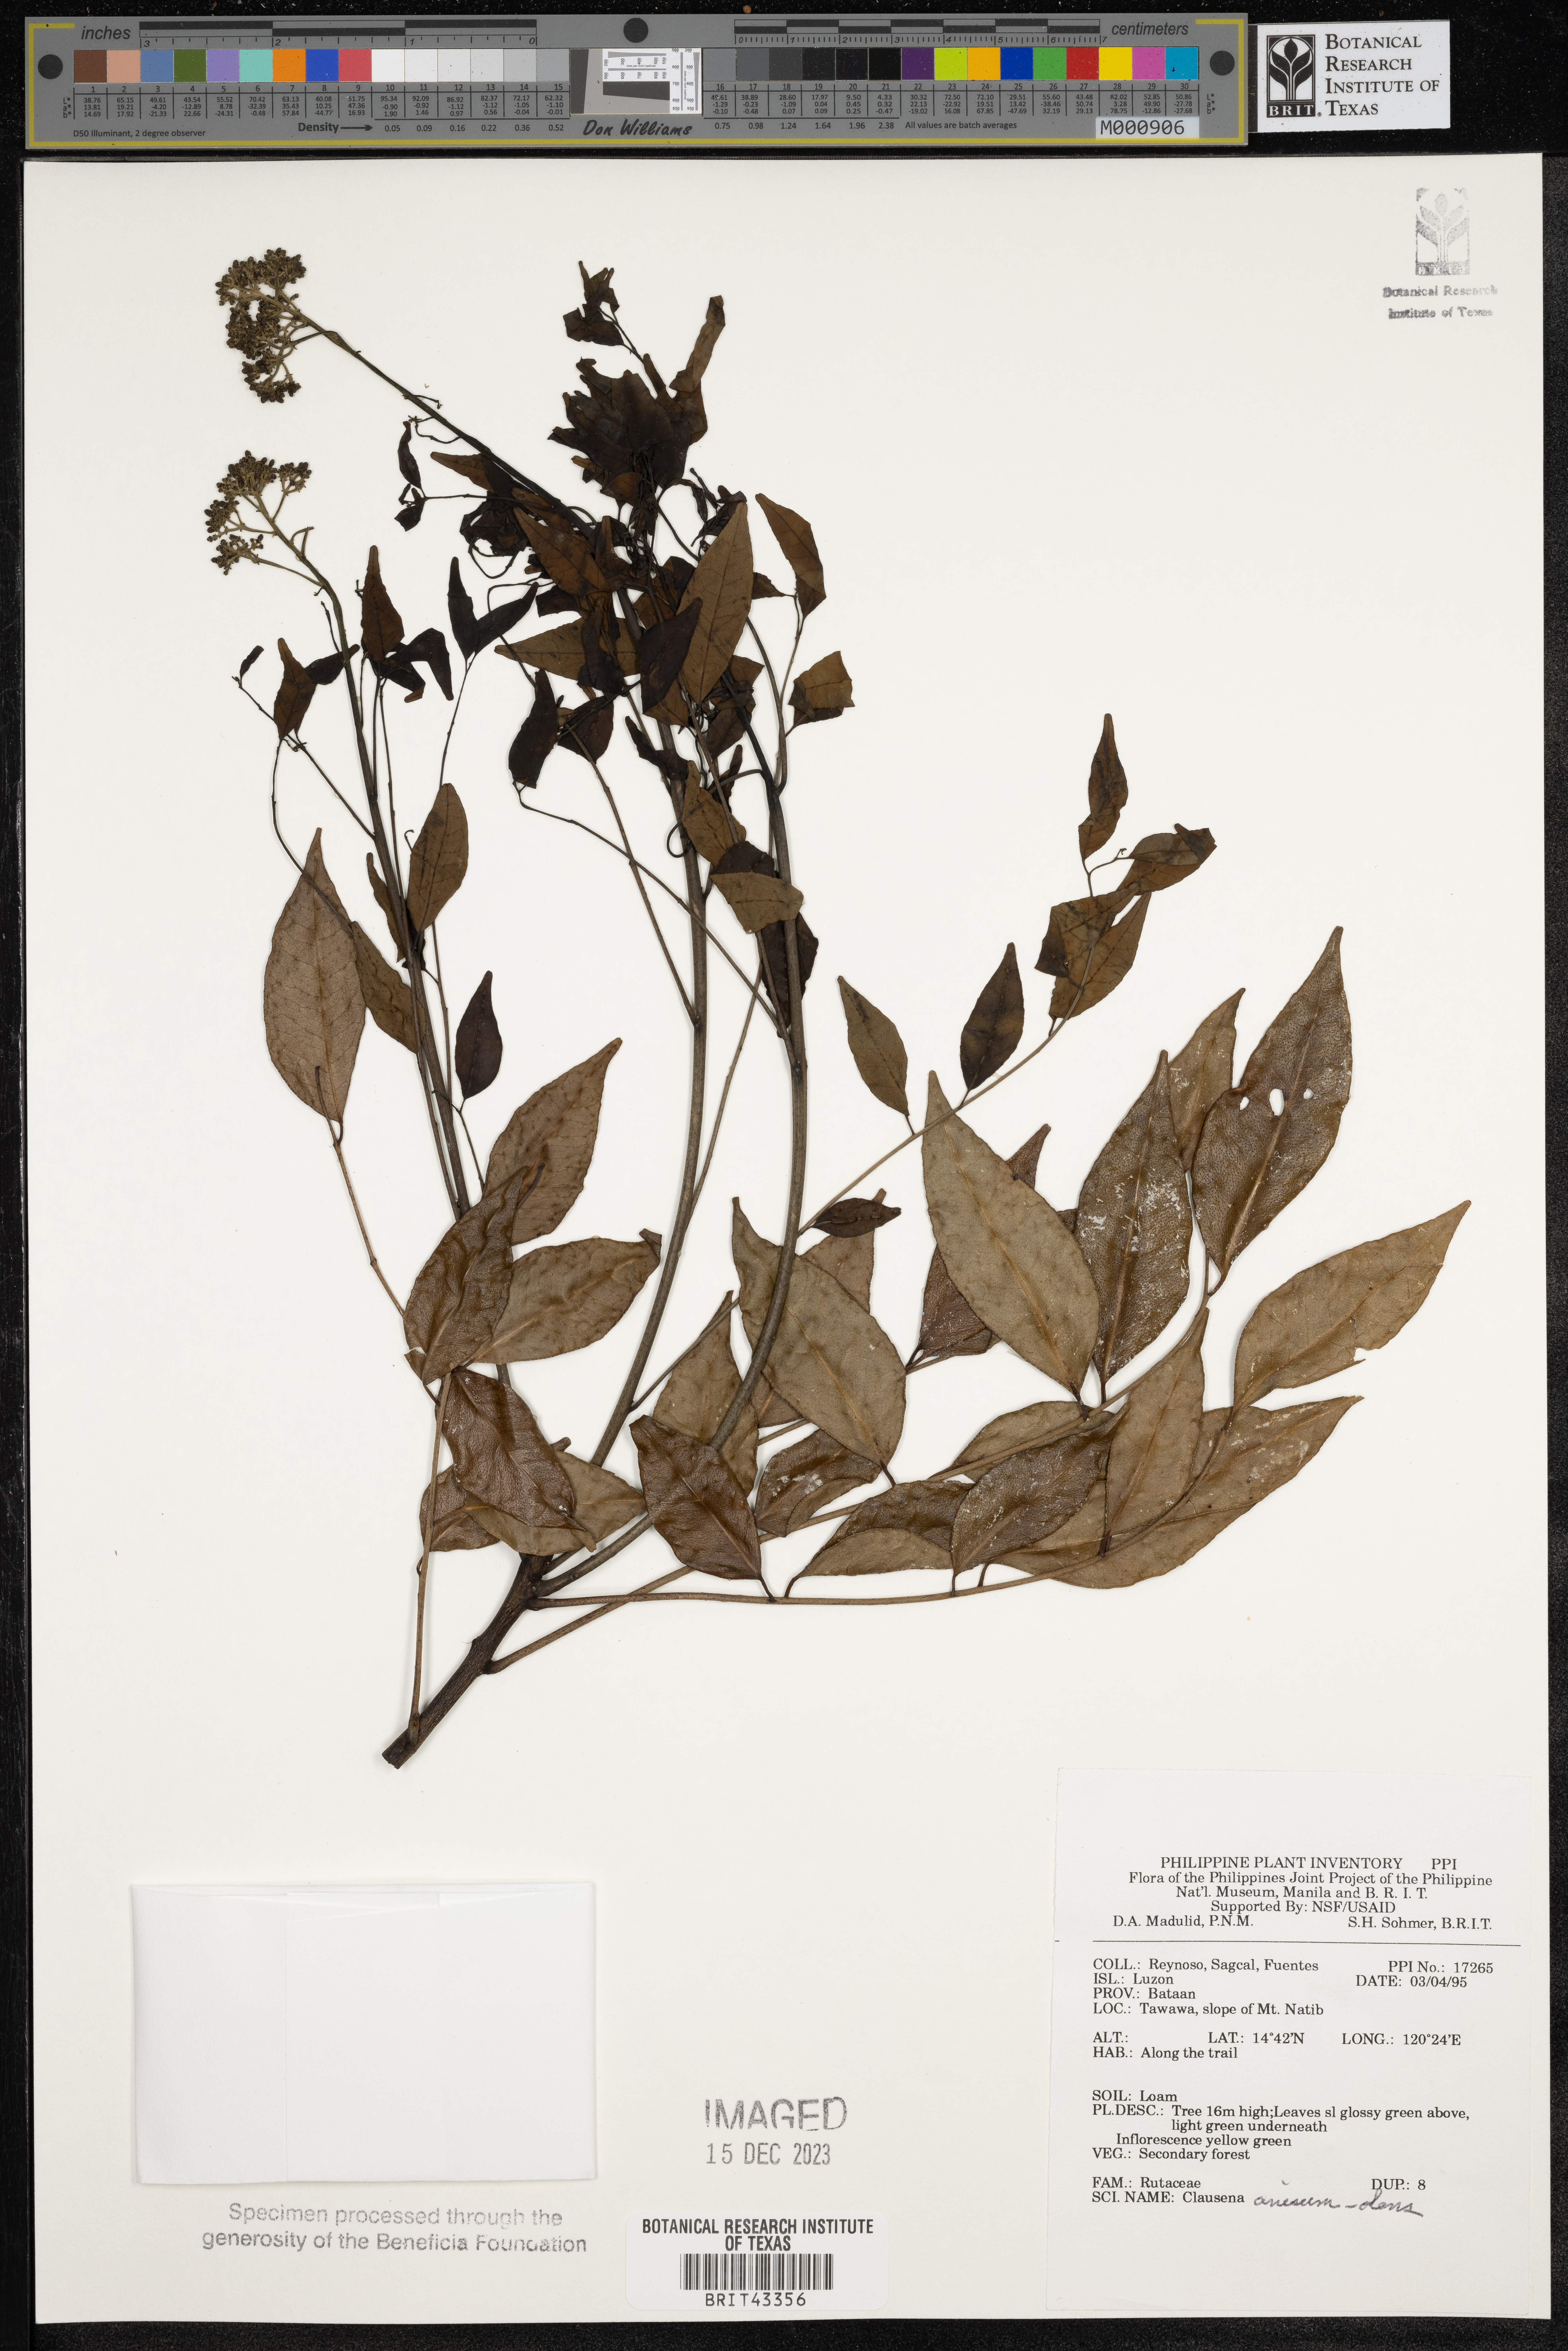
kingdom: Plantae
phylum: Tracheophyta
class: Magnoliopsida
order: Sapindales
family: Rutaceae
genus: Clausena
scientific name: Clausena anisum-olens
